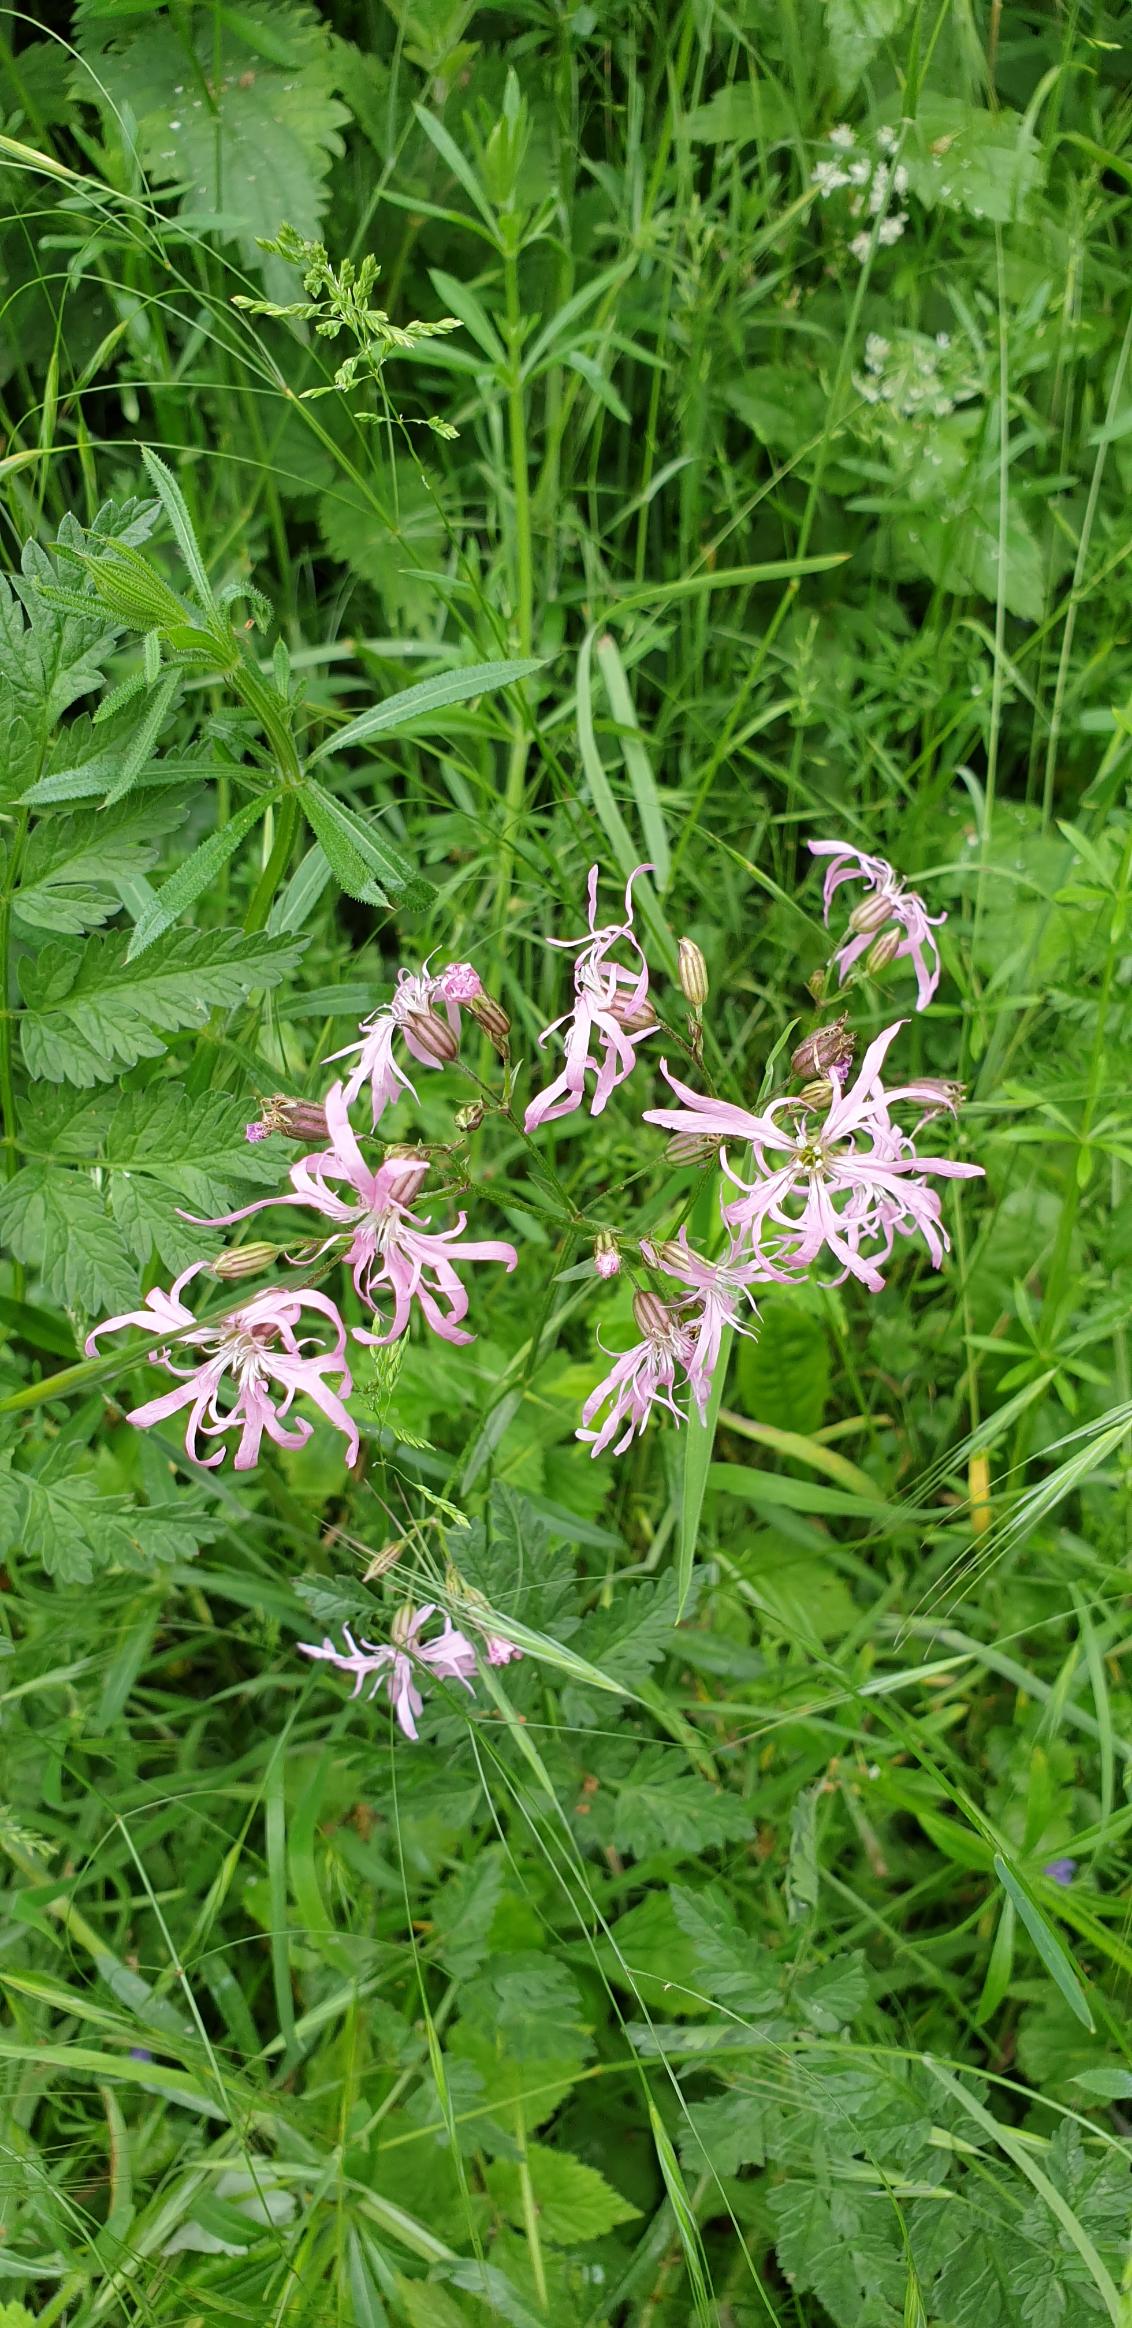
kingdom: Plantae
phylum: Tracheophyta
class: Magnoliopsida
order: Caryophyllales
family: Caryophyllaceae
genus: Silene
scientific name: Silene flos-cuculi
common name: Trævlekrone
